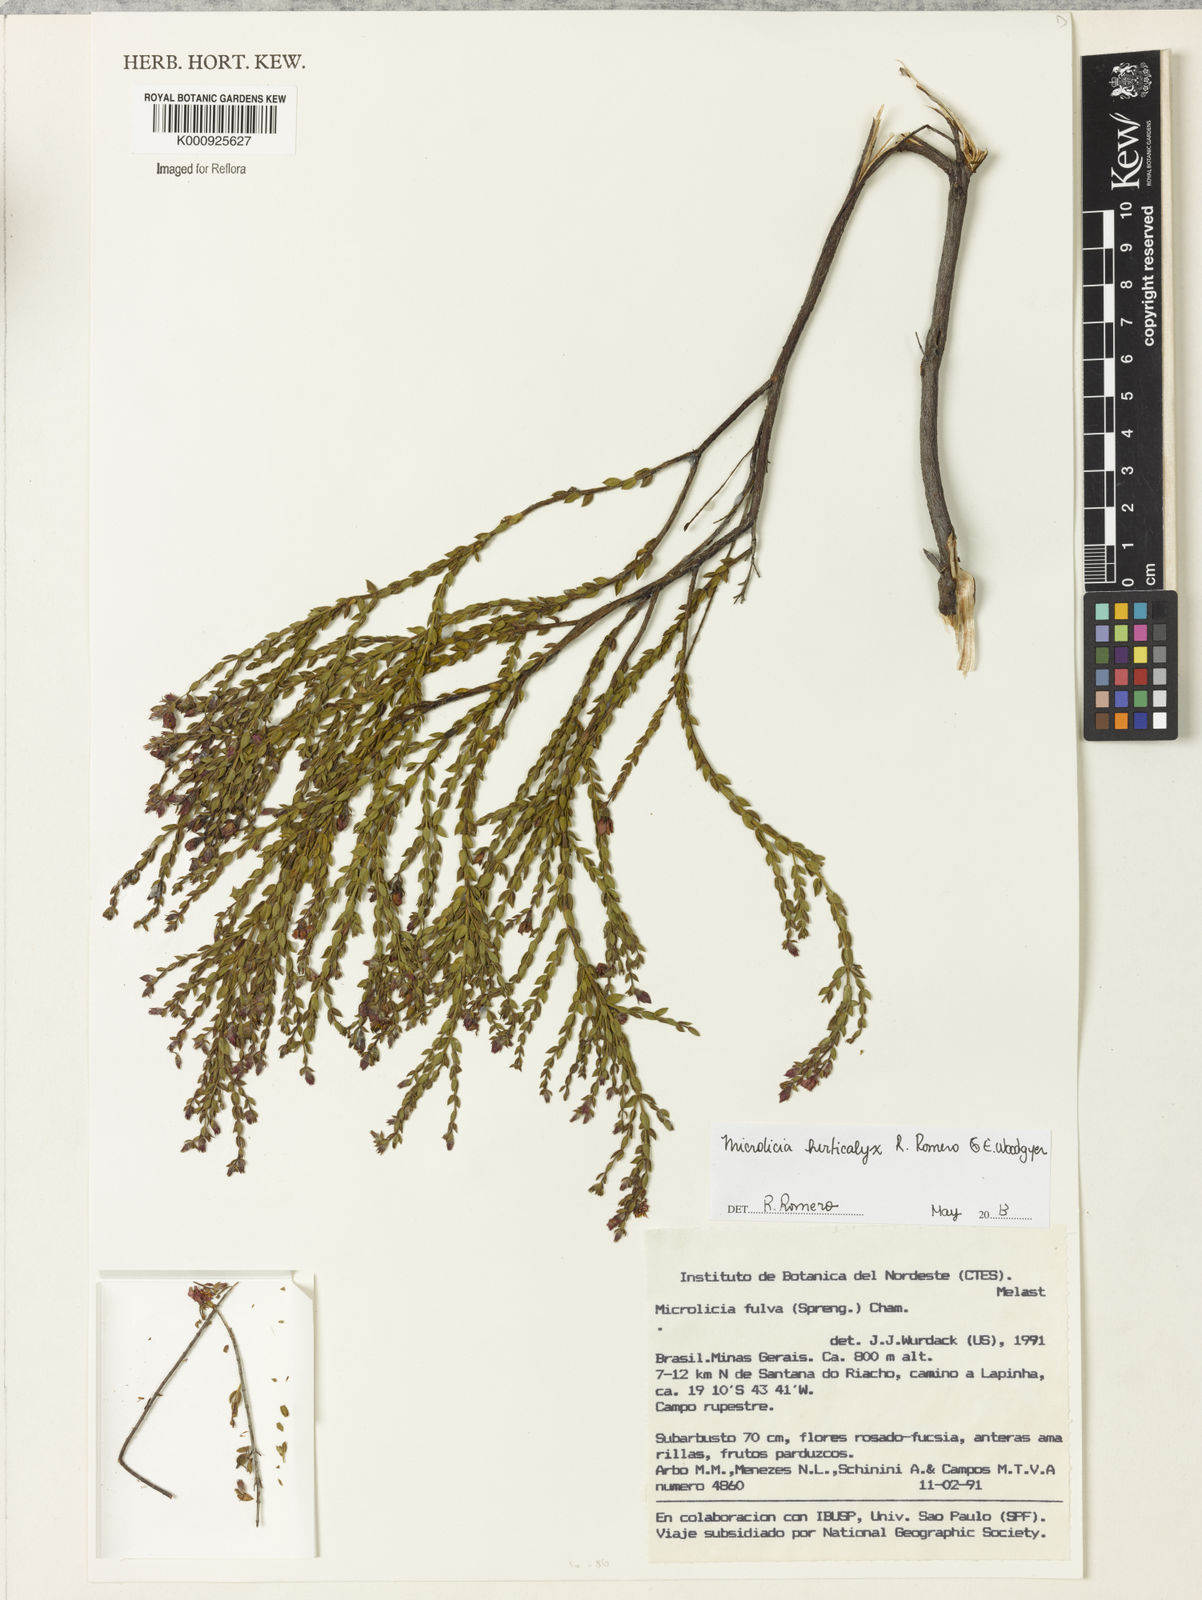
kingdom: Plantae
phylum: Tracheophyta
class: Magnoliopsida
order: Myrtales
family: Melastomataceae
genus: Microlicia
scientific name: Microlicia hirticalyx
